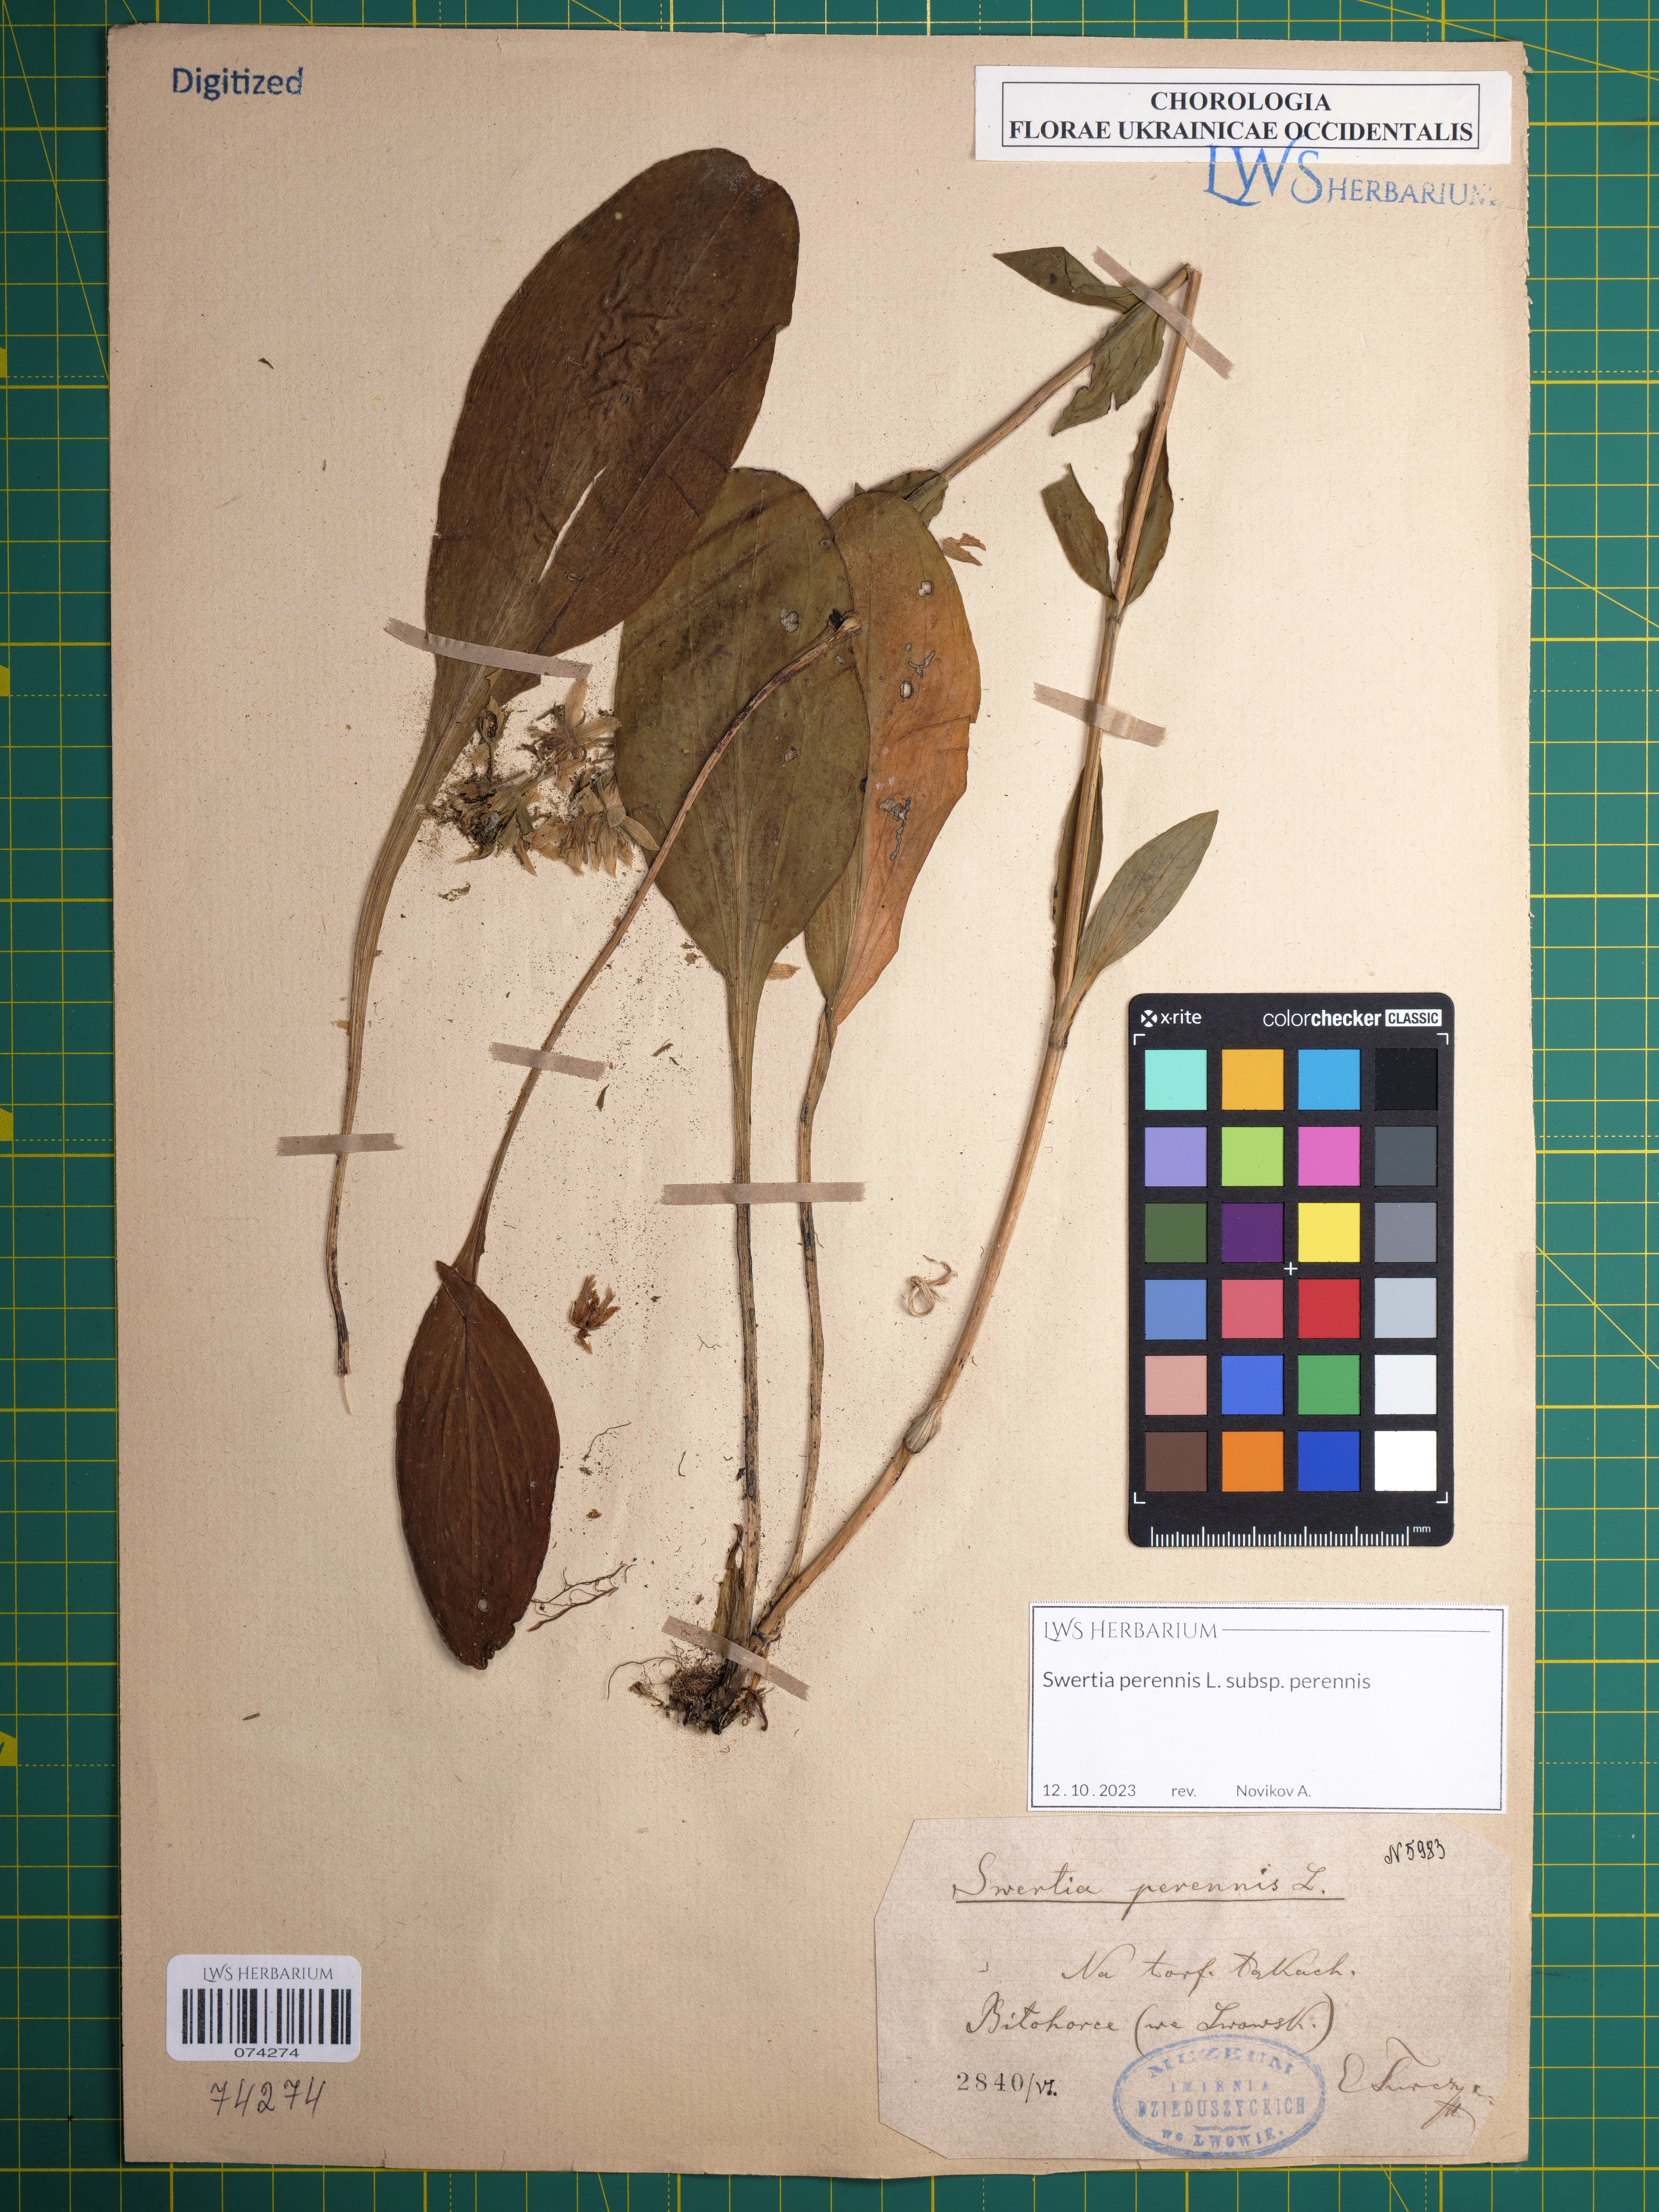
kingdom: Plantae
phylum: Tracheophyta
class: Magnoliopsida
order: Gentianales
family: Gentianaceae
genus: Swertia
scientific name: Swertia perennis
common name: Alpine bog swertia
